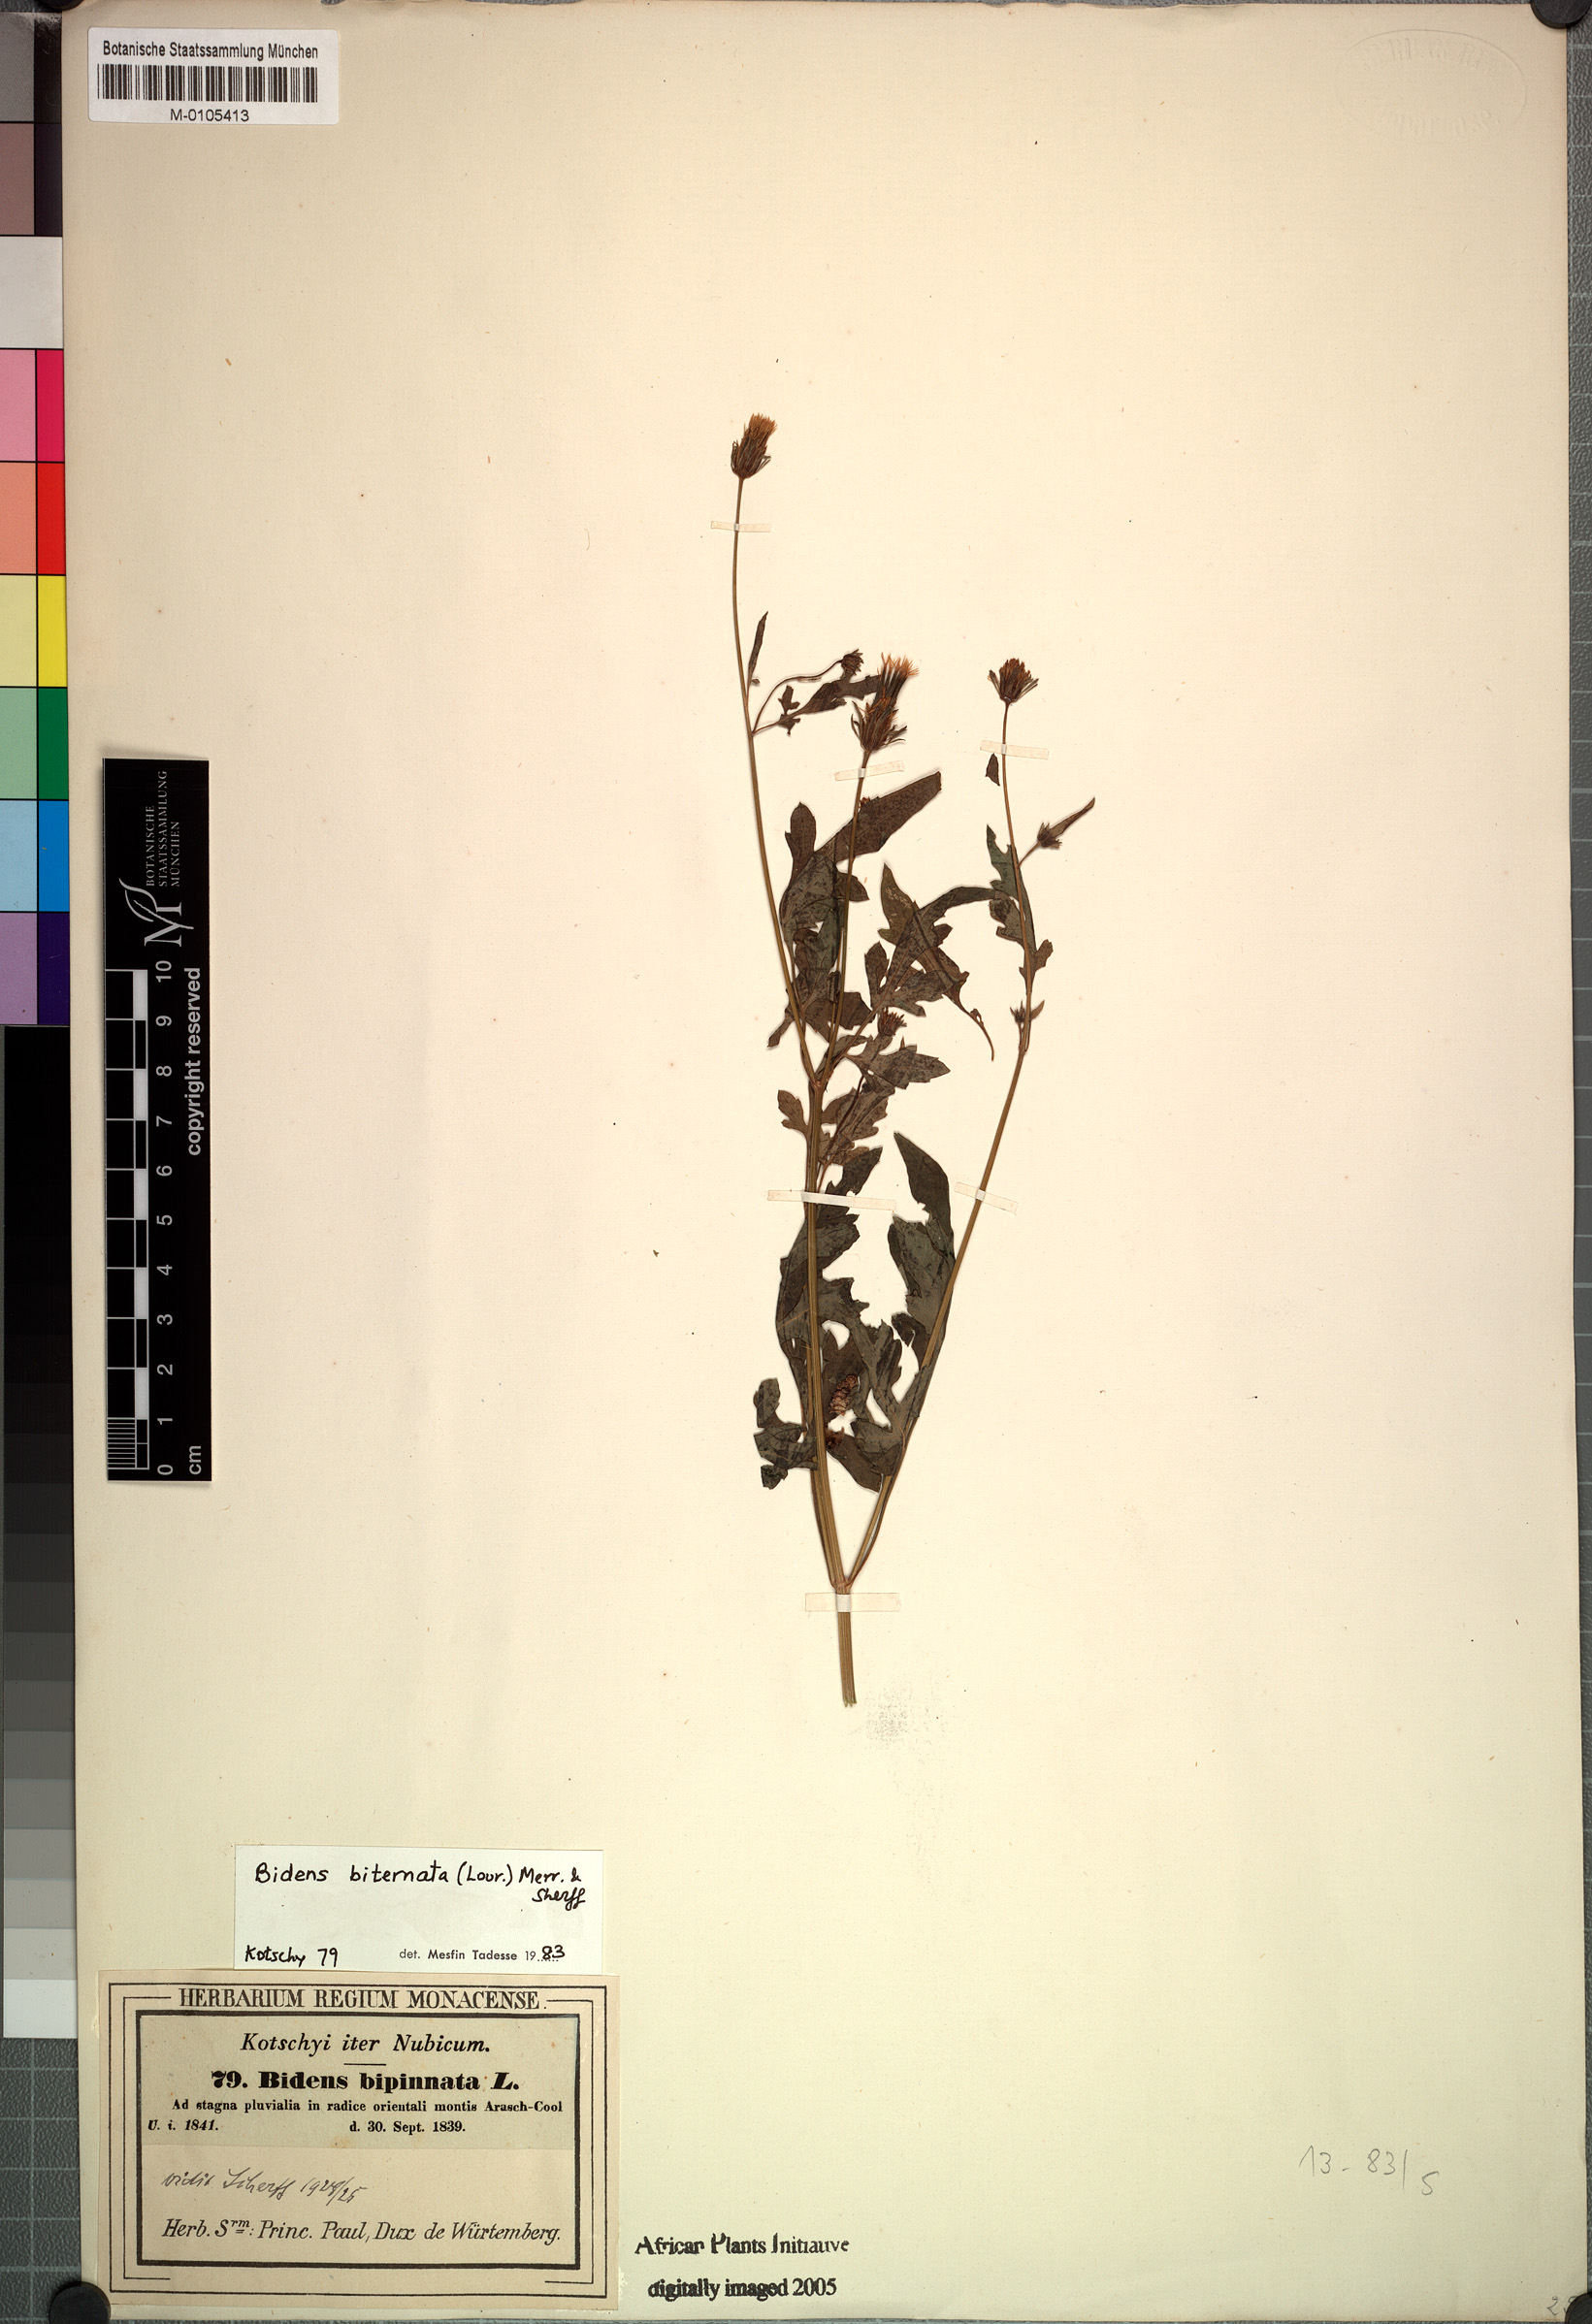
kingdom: Plantae
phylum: Tracheophyta
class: Magnoliopsida
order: Asterales
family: Asteraceae
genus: Bidens
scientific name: Bidens biternata
